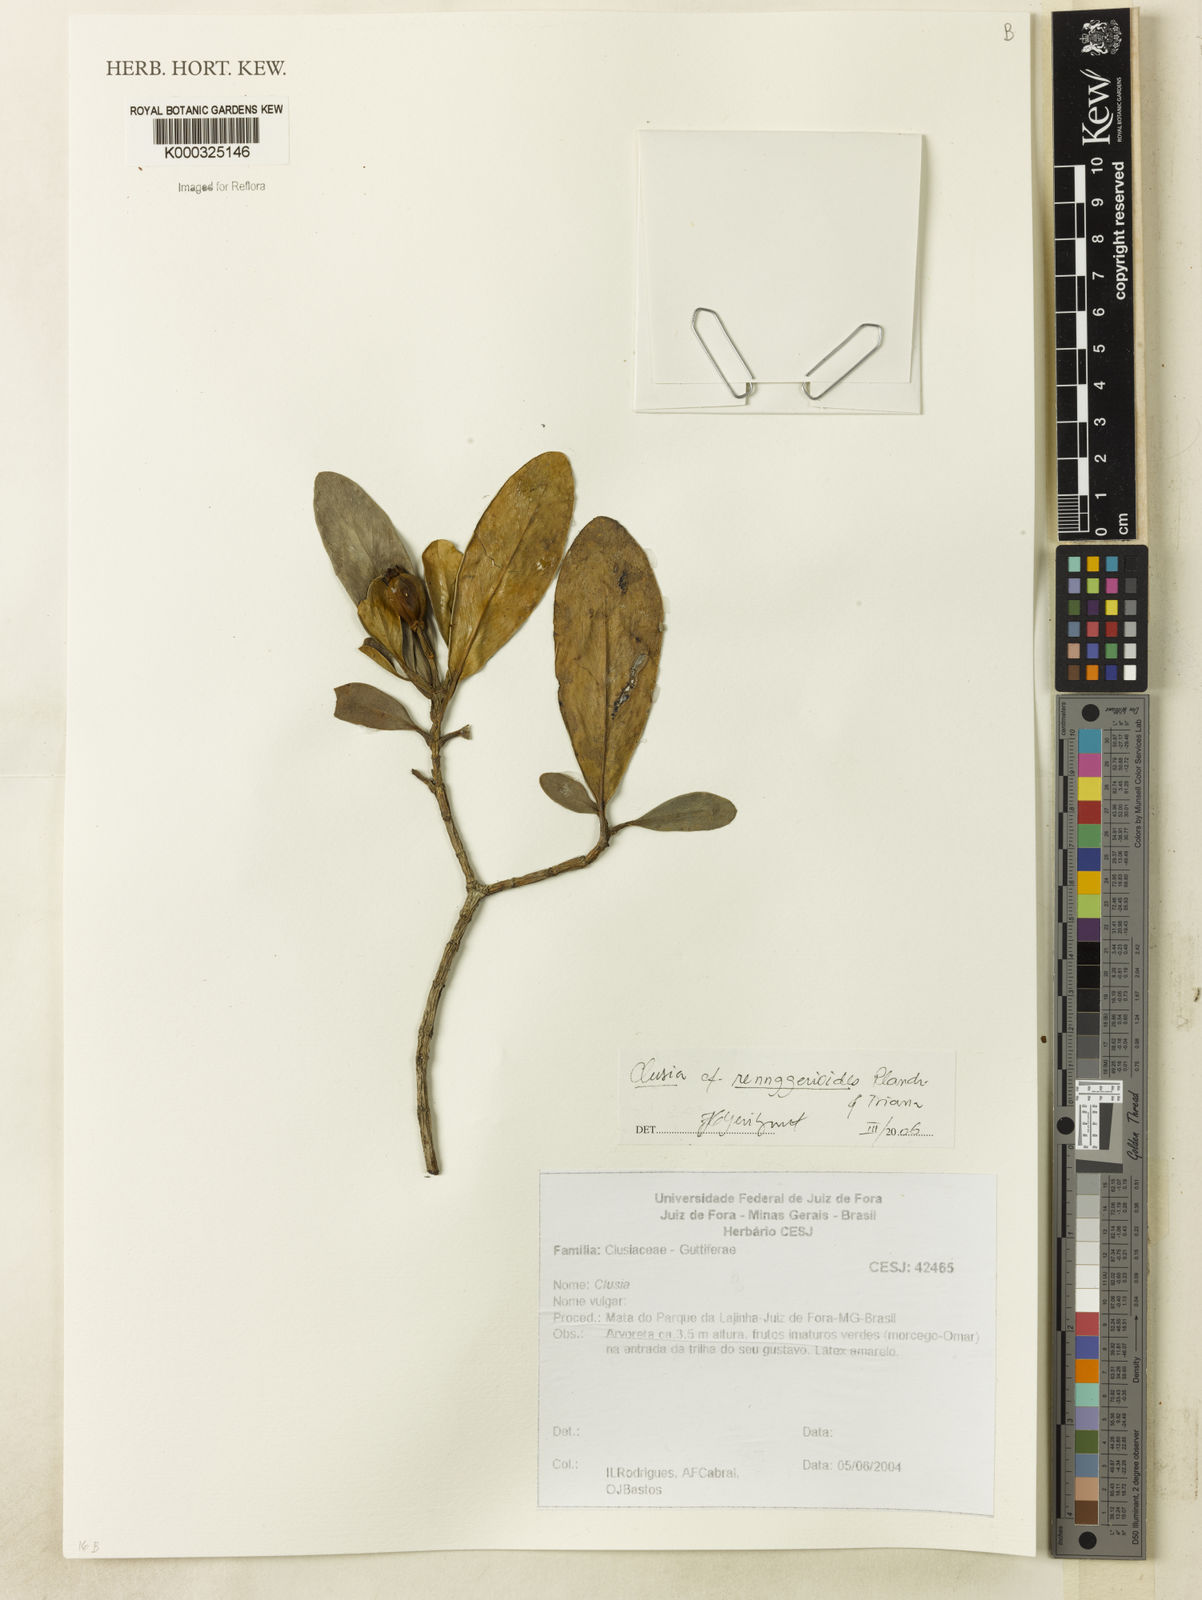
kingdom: Plantae
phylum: Tracheophyta
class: Magnoliopsida
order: Malpighiales
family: Clusiaceae
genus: Clusia
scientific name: Clusia renggerioides
